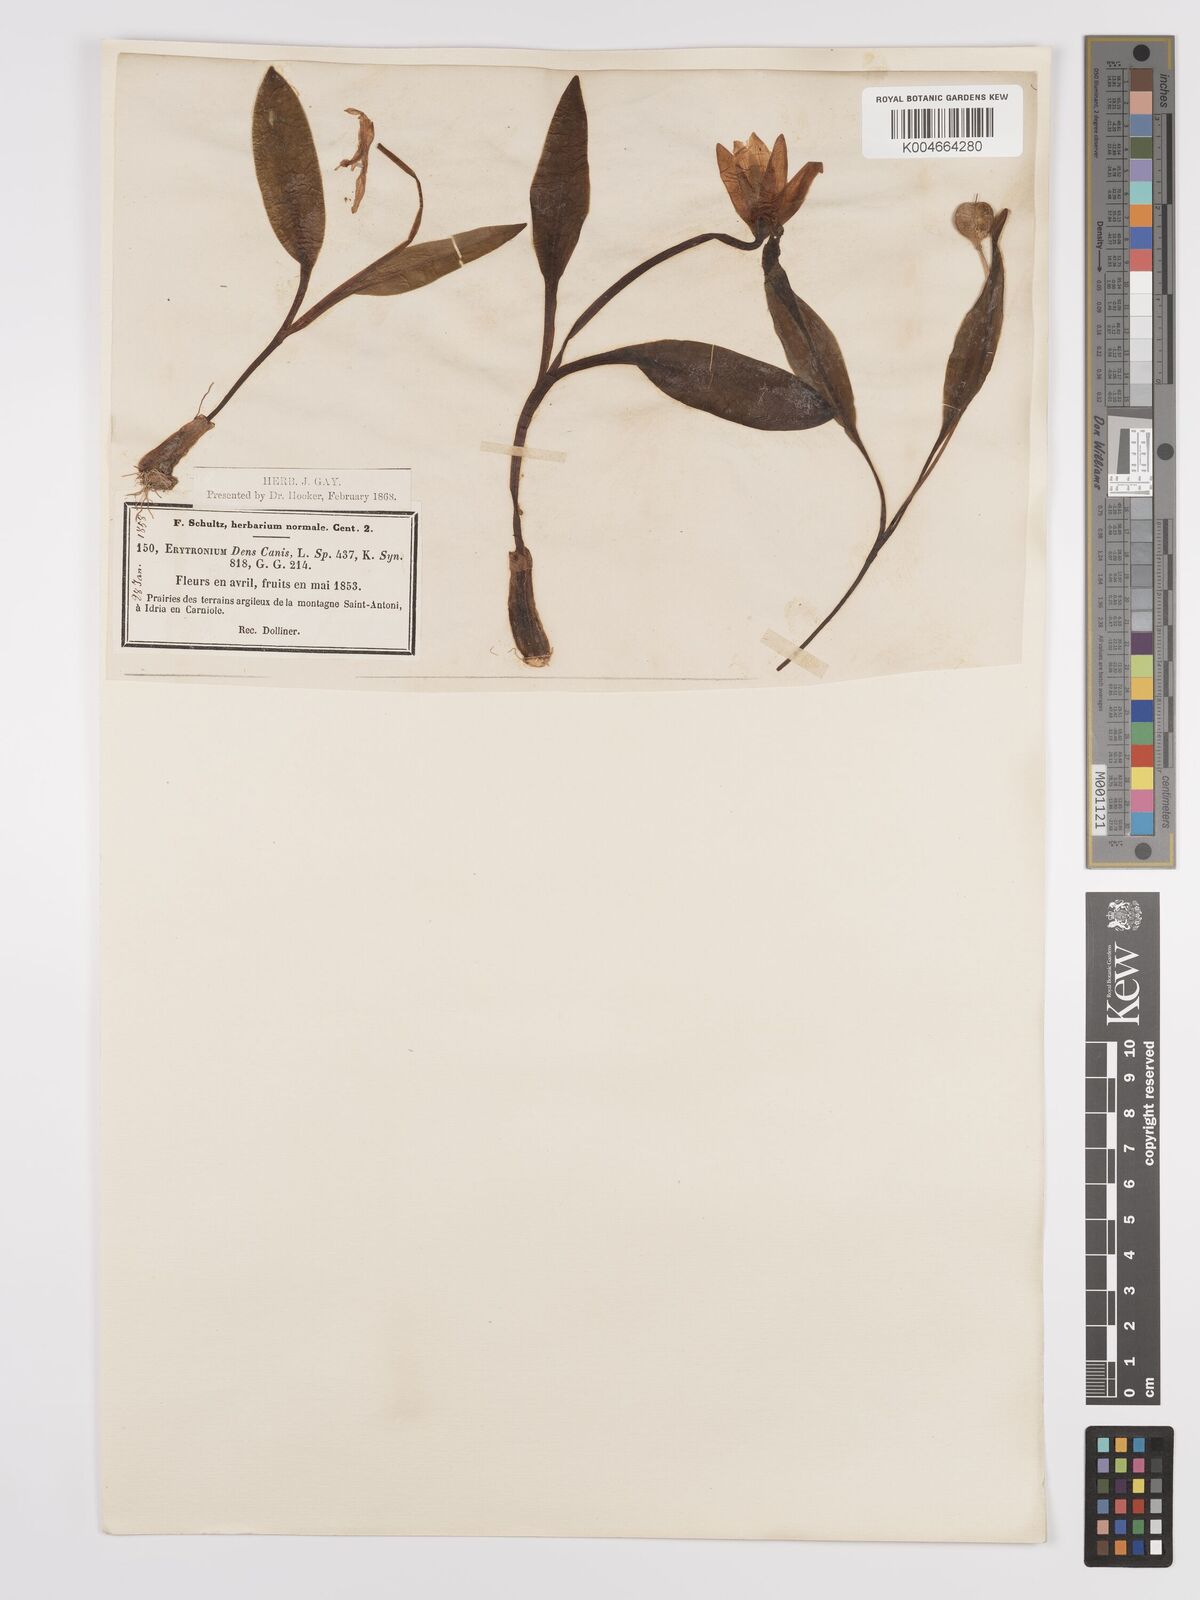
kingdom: Plantae
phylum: Tracheophyta
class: Liliopsida
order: Liliales
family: Liliaceae
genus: Erythronium
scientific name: Erythronium dens-canis
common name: Dog's-tooth-violet
